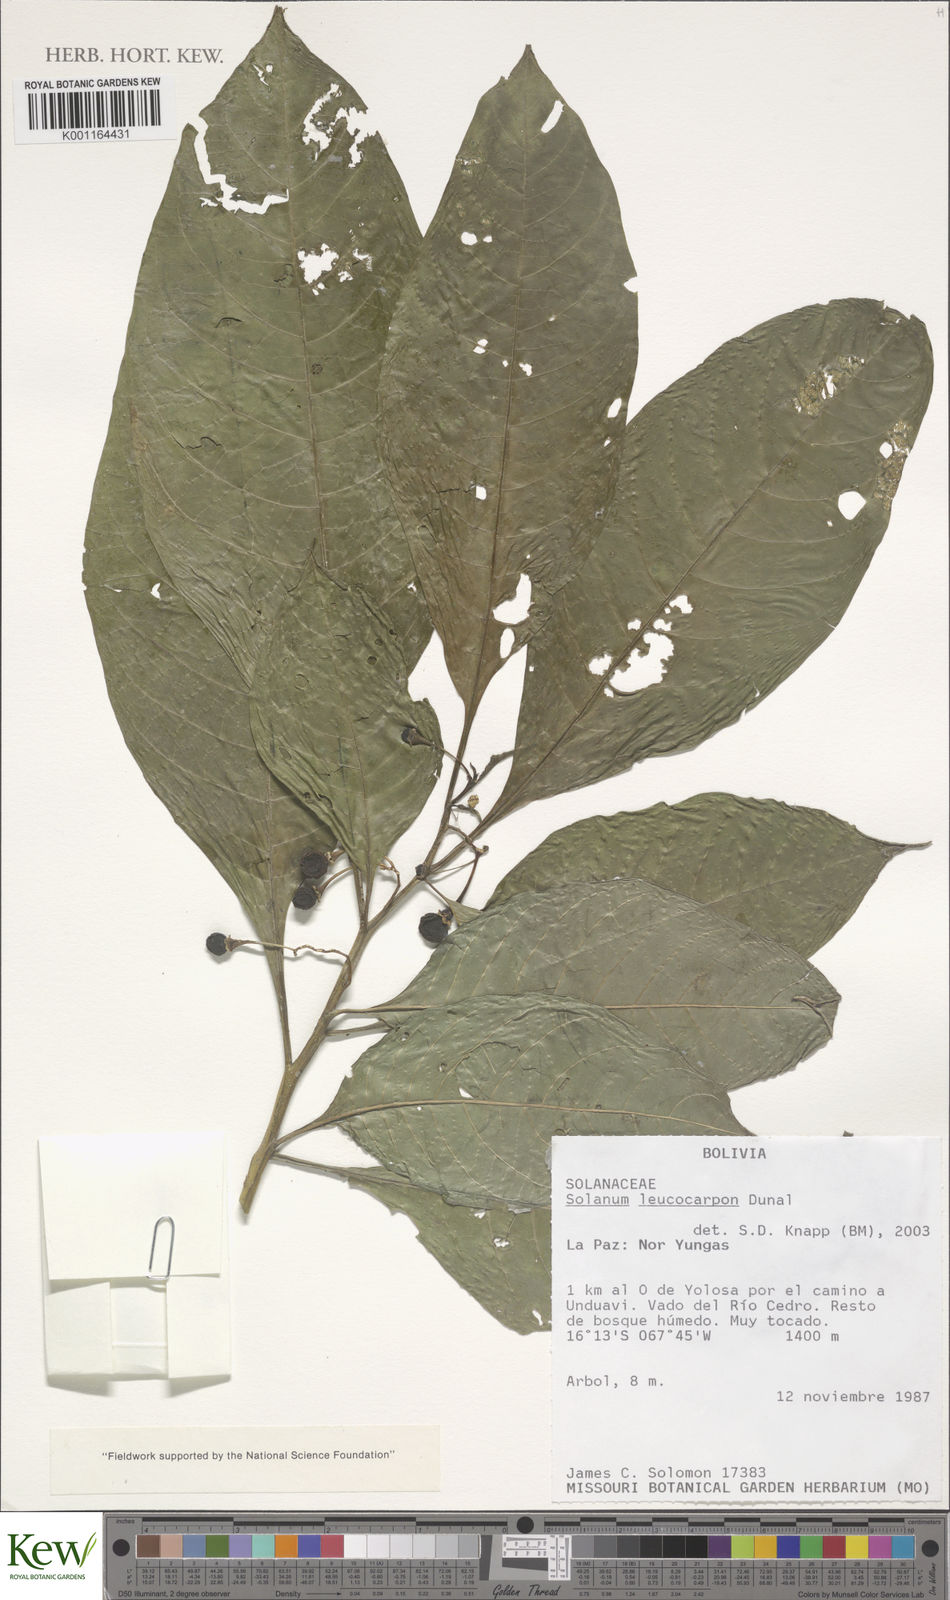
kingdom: Plantae
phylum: Tracheophyta
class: Magnoliopsida
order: Solanales
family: Solanaceae
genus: Solanum
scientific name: Solanum leucocarpon
